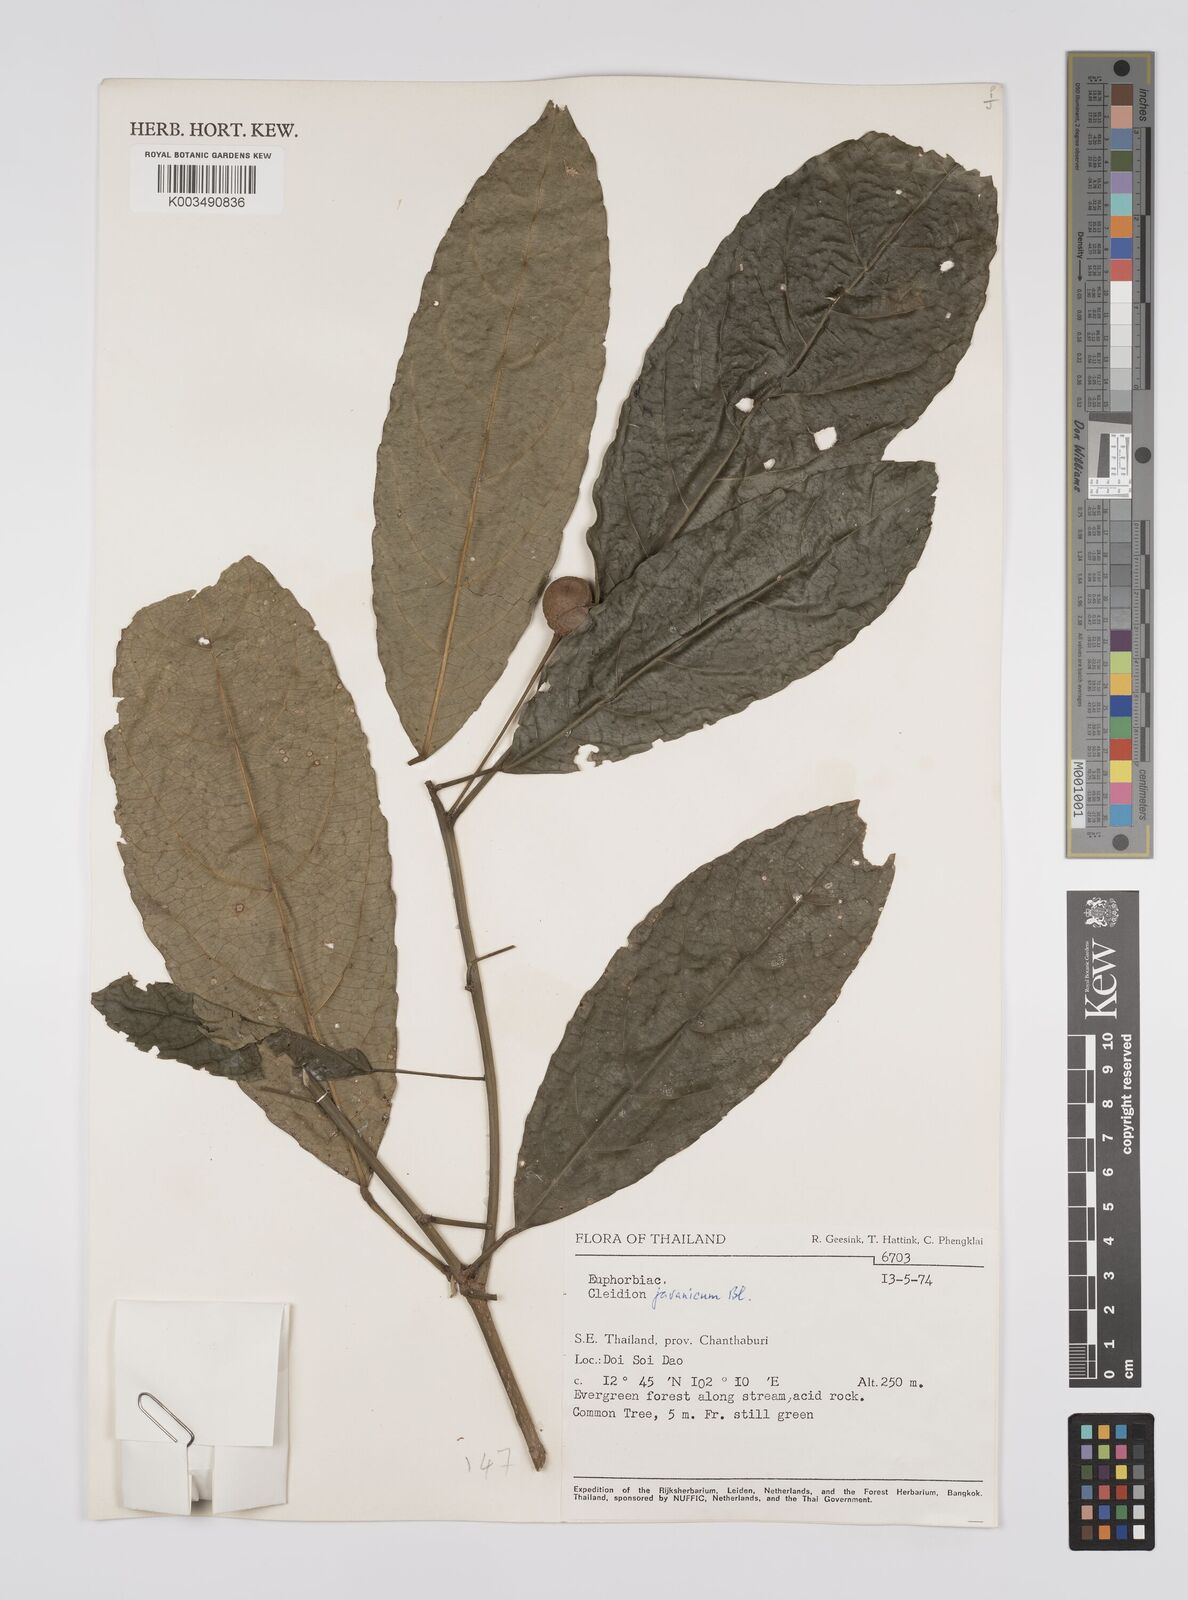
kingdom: Plantae
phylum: Tracheophyta
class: Magnoliopsida
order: Malpighiales
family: Euphorbiaceae
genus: Acalypha
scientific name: Acalypha spiciflora
